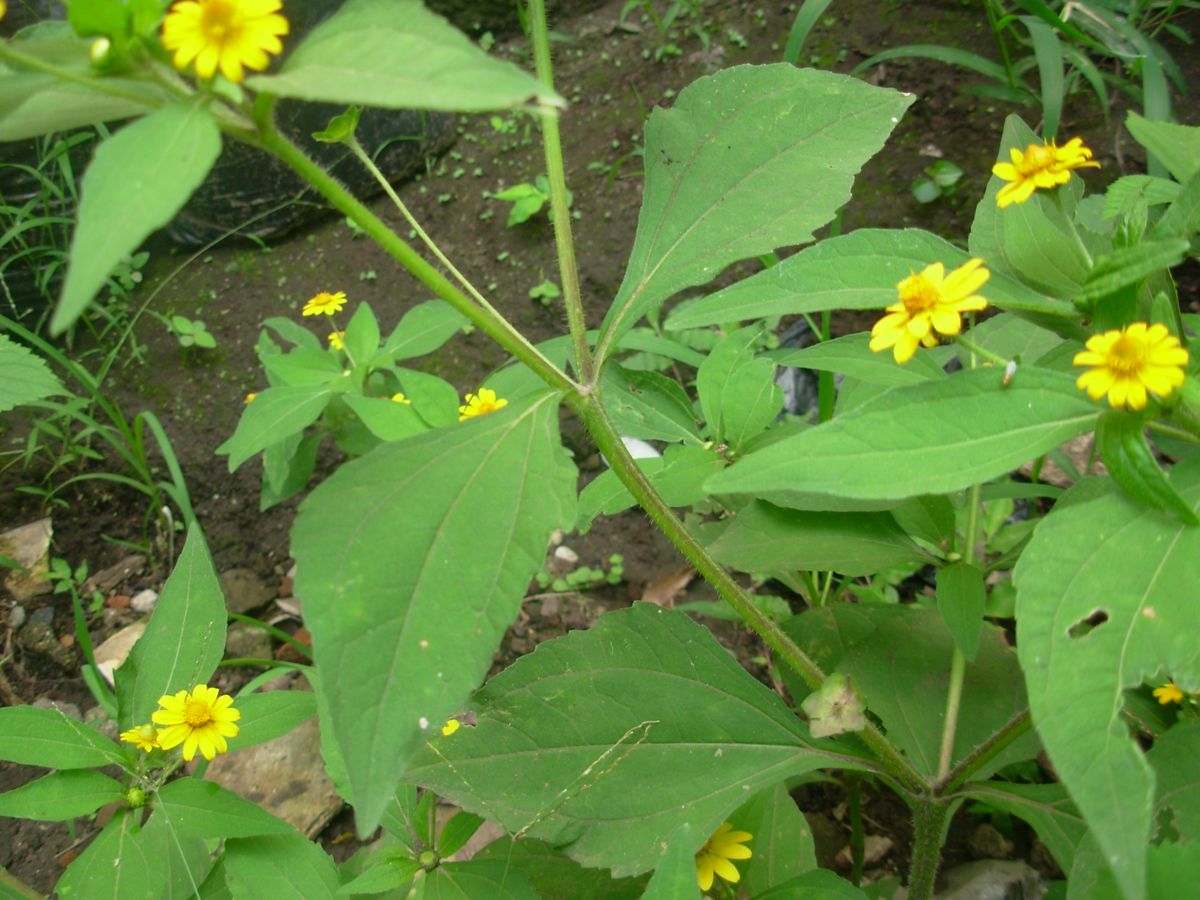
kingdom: Plantae
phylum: Tracheophyta
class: Magnoliopsida
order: Asterales
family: Asteraceae
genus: Melampodium
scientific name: Melampodium divaricatum
